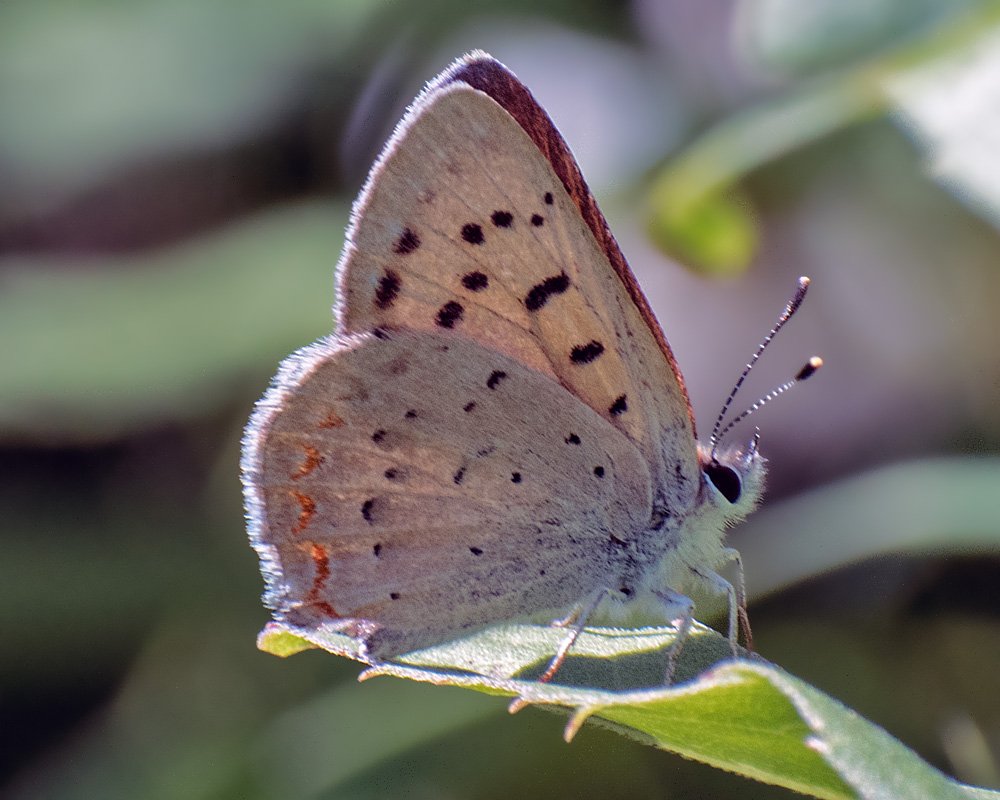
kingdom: Animalia
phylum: Arthropoda
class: Insecta
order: Lepidoptera
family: Sesiidae
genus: Sesia
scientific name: Sesia Lycaena helloides
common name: Purplish Copper
